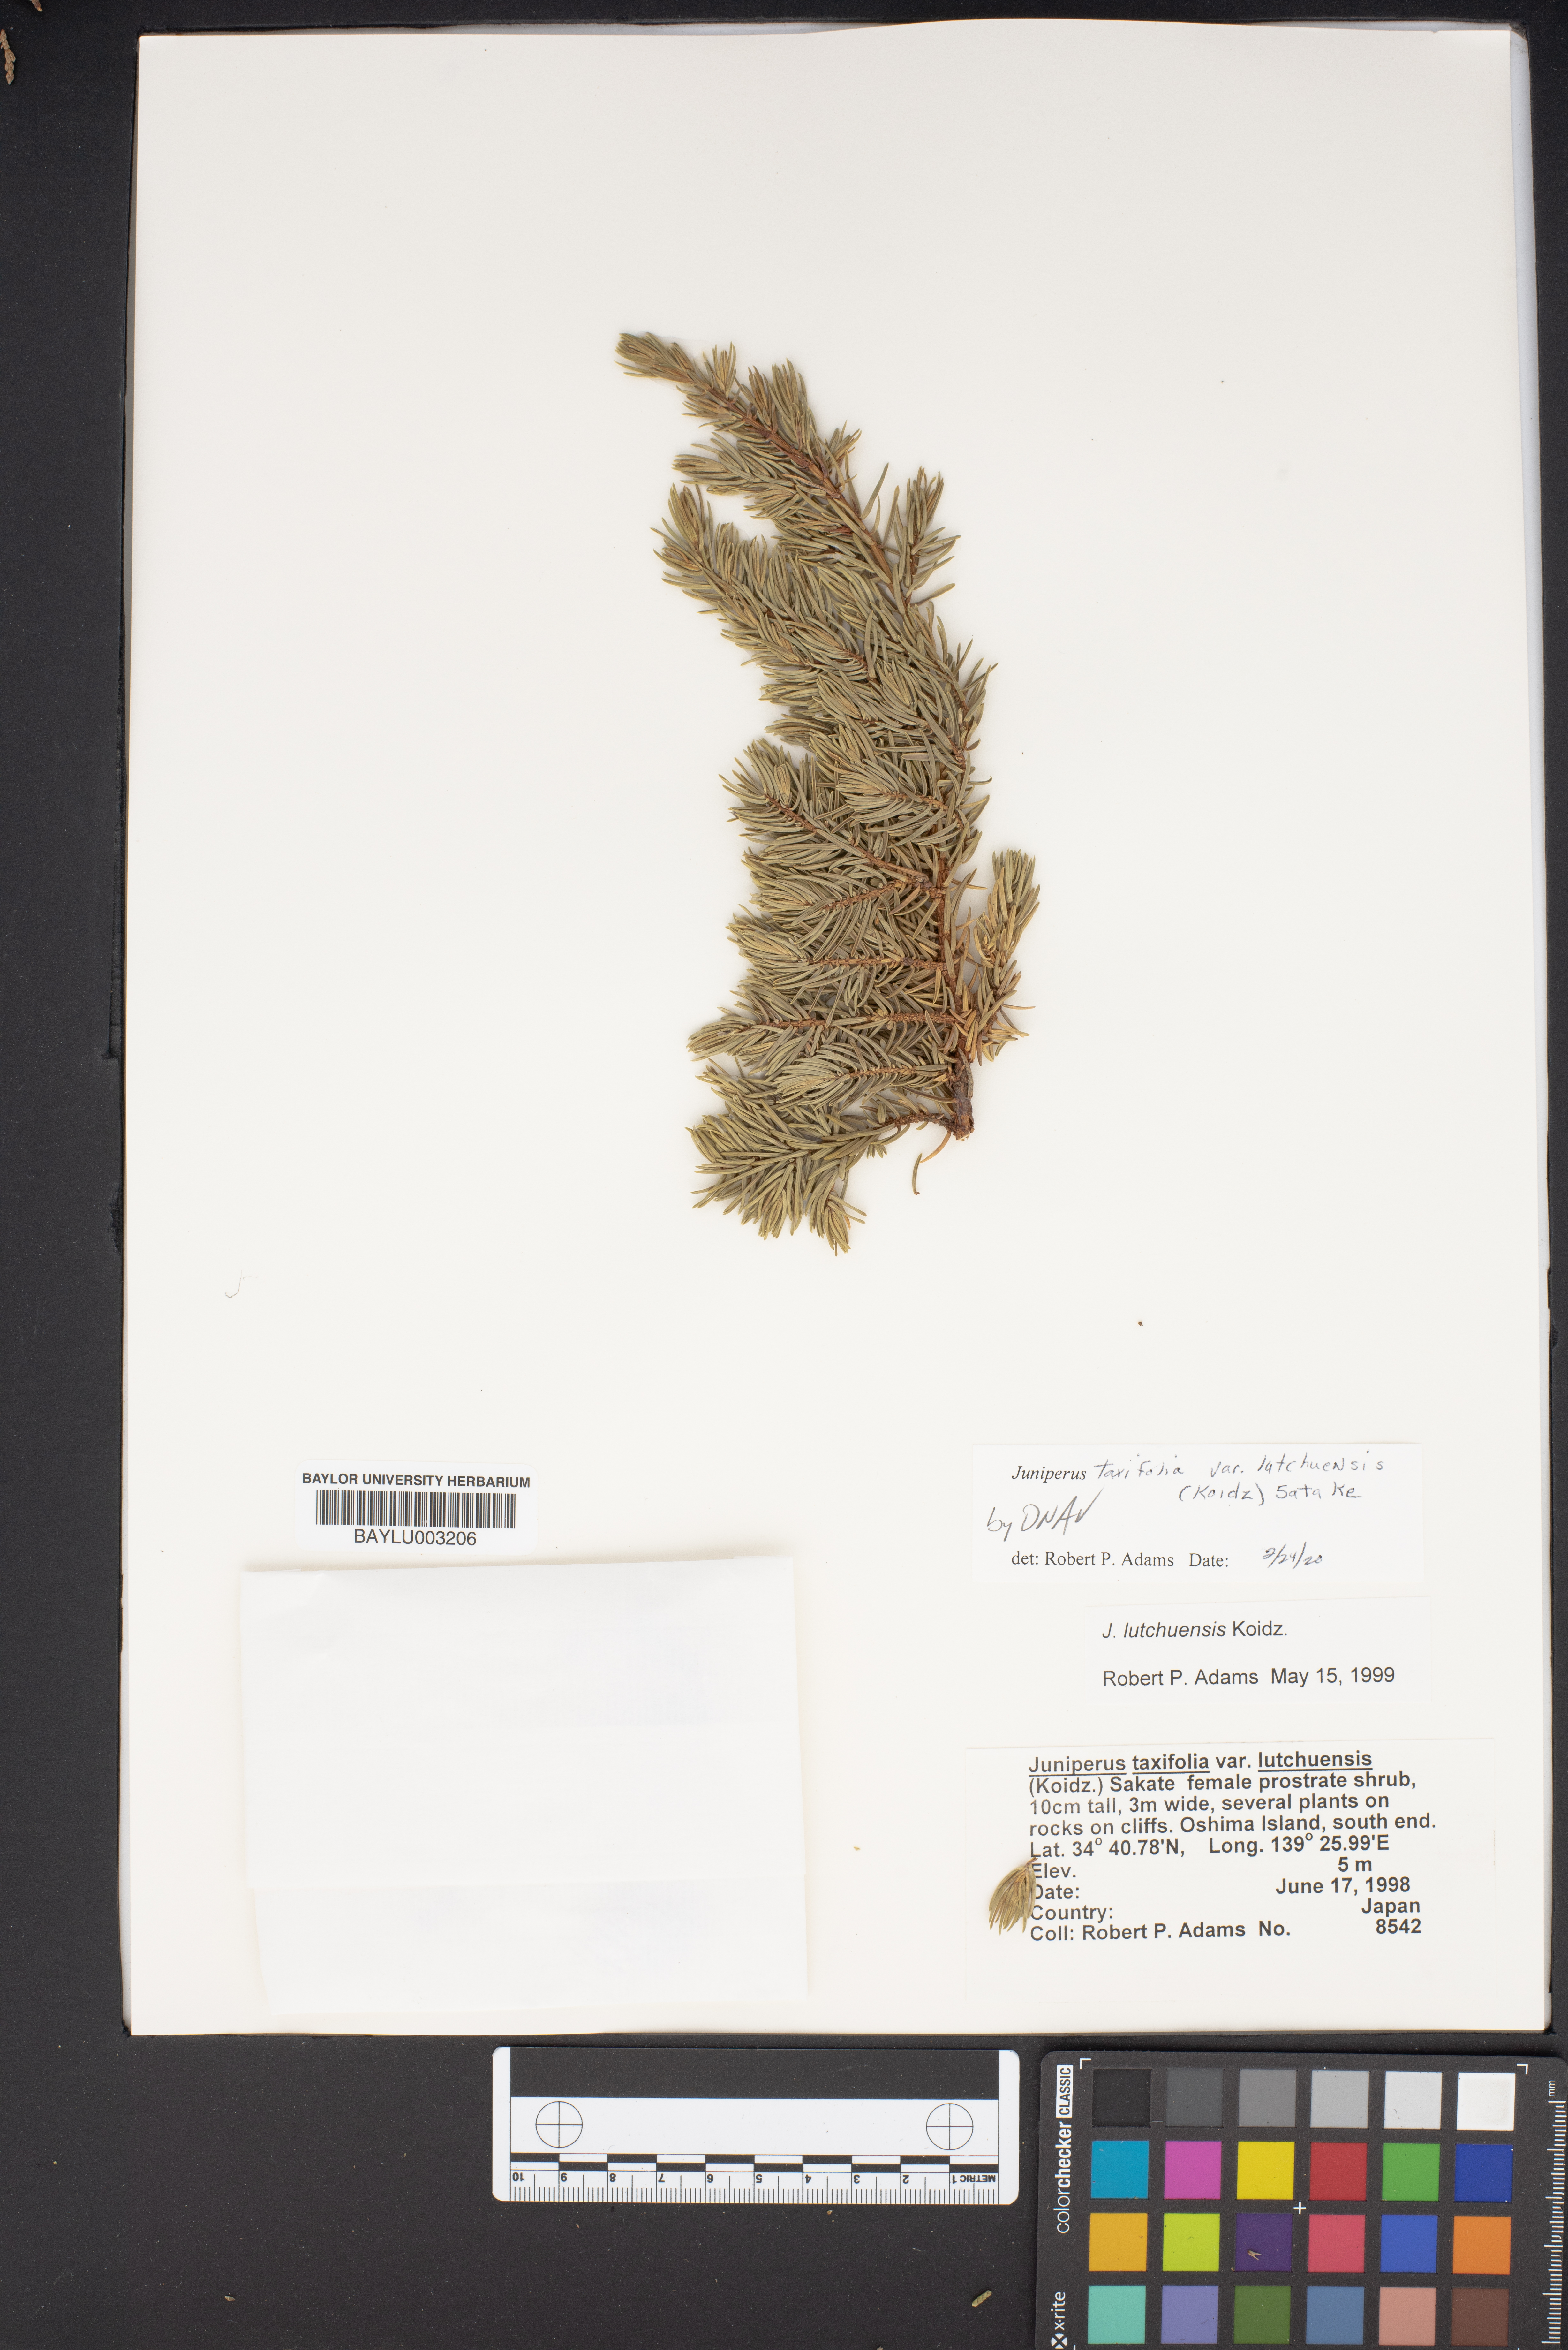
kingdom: Plantae
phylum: Tracheophyta
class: Pinopsida
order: Pinales
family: Cupressaceae
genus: Juniperus
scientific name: Juniperus taxifolia
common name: Fitcheisi
